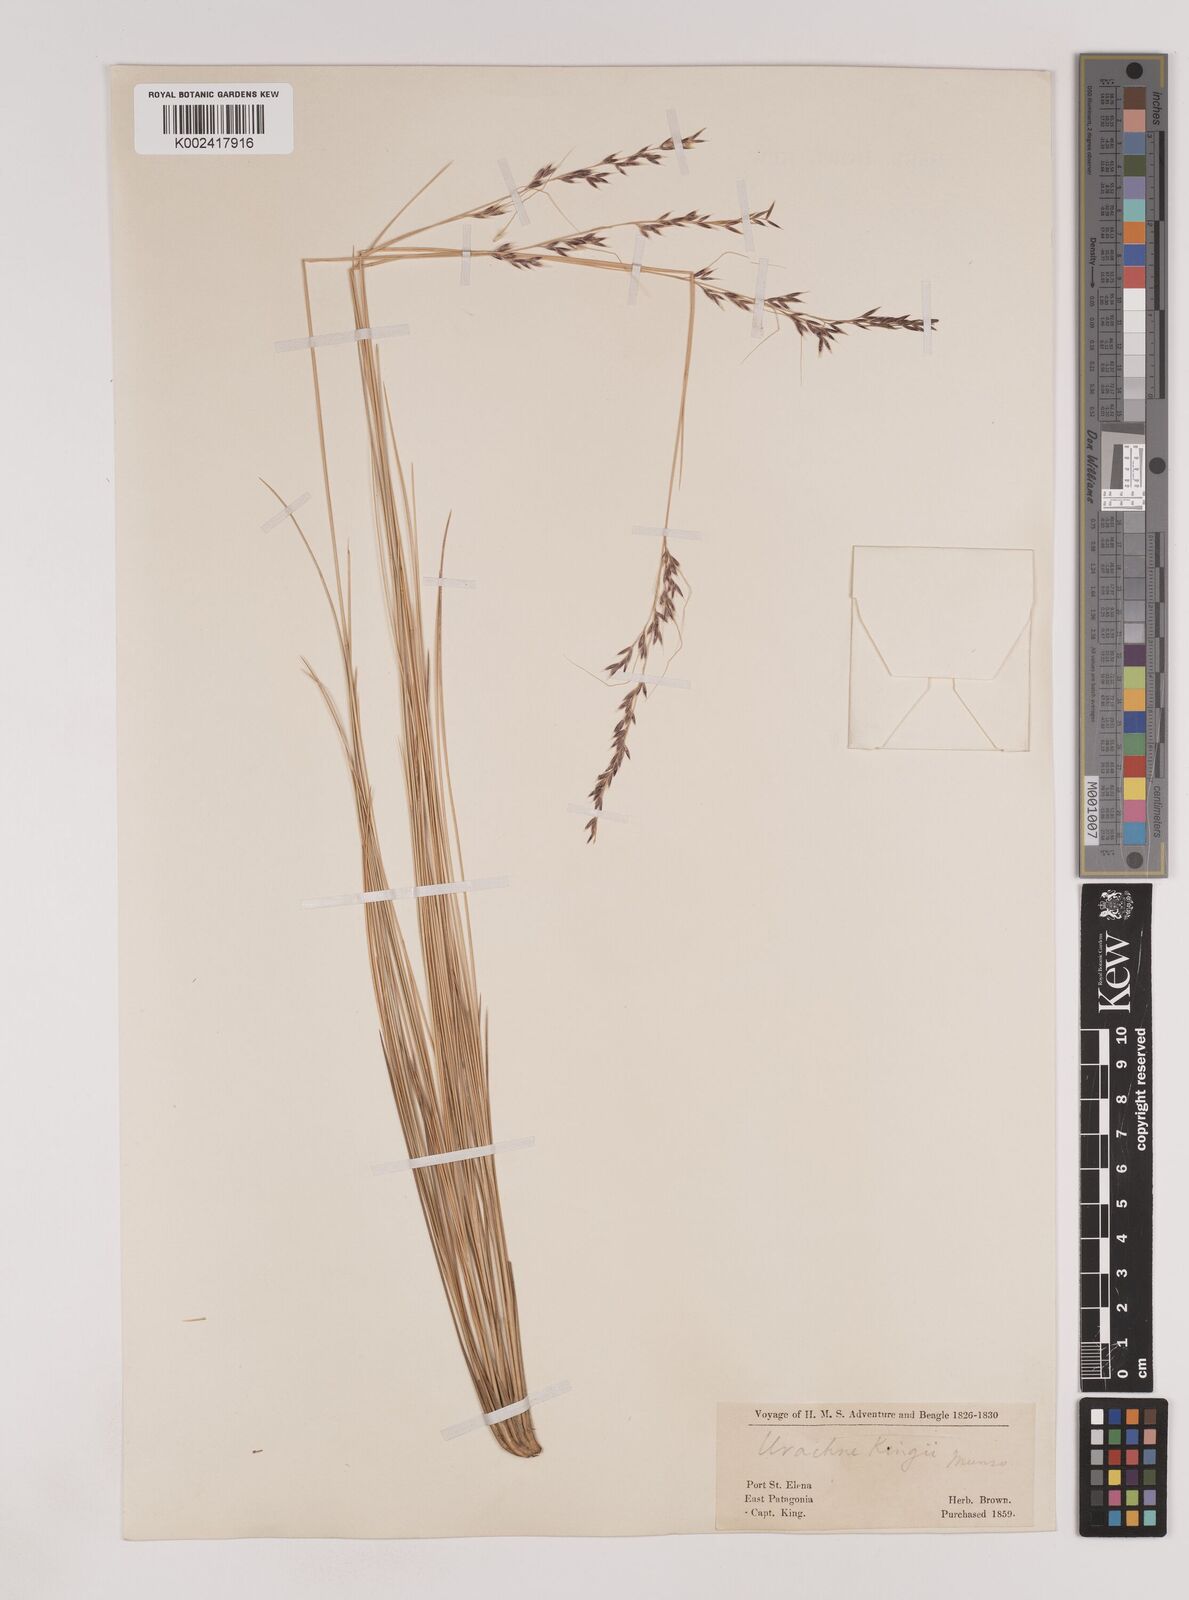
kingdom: Plantae
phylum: Tracheophyta
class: Liliopsida
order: Poales
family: Poaceae
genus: Nassella
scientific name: Nassella pampeana
